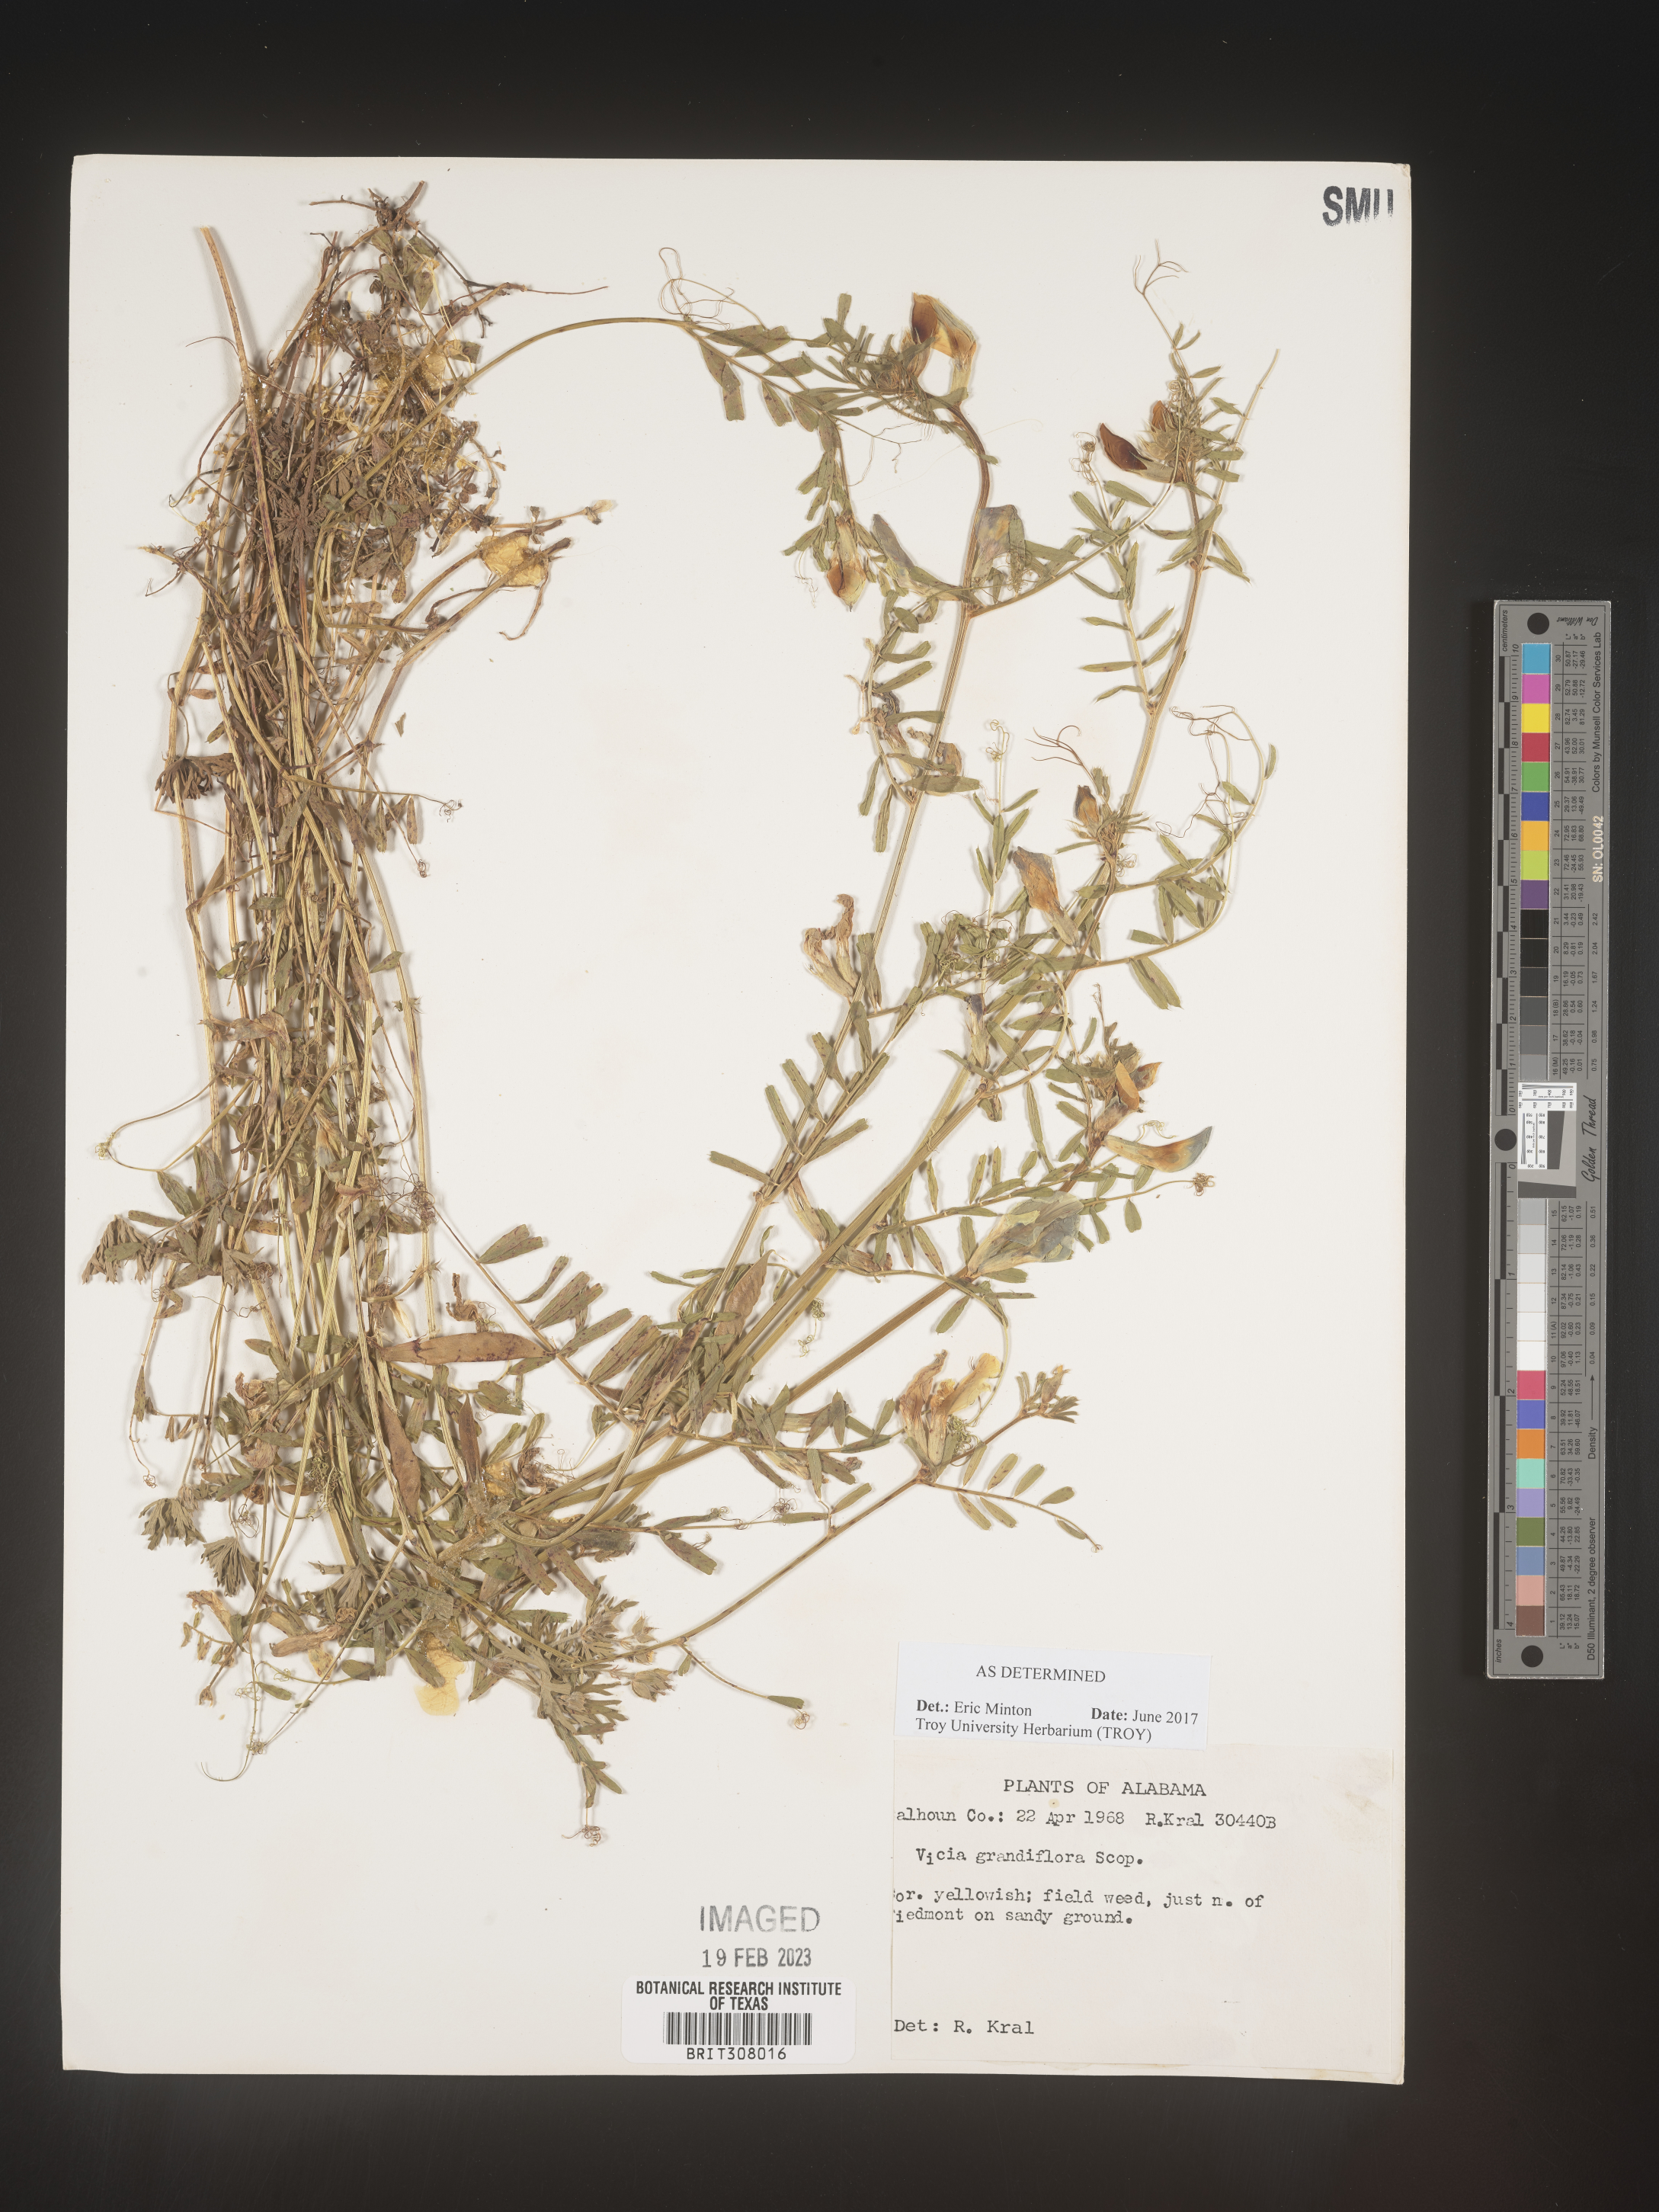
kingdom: Plantae
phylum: Tracheophyta
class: Magnoliopsida
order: Fabales
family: Fabaceae
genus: Vicia
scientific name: Vicia grandiflora
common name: Large yellow vetch
